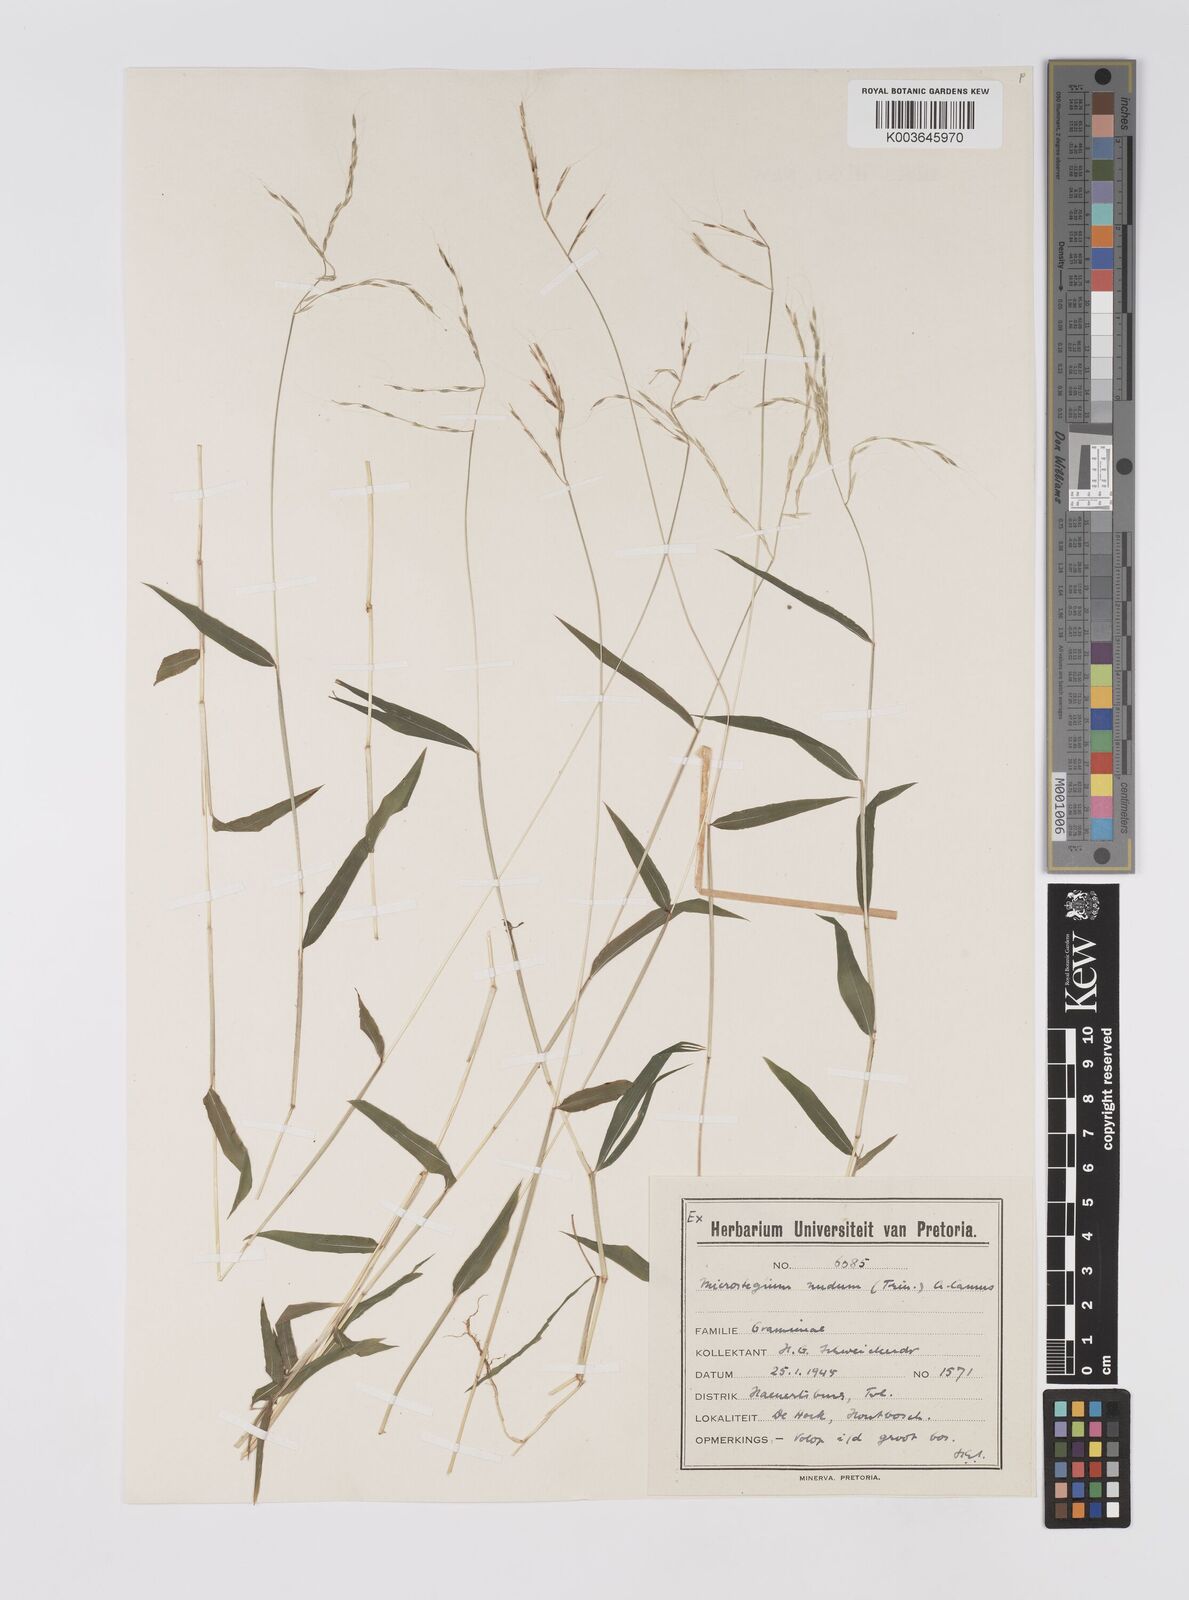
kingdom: Plantae
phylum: Tracheophyta
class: Liliopsida
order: Poales
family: Poaceae
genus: Microstegium
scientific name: Microstegium nudum
